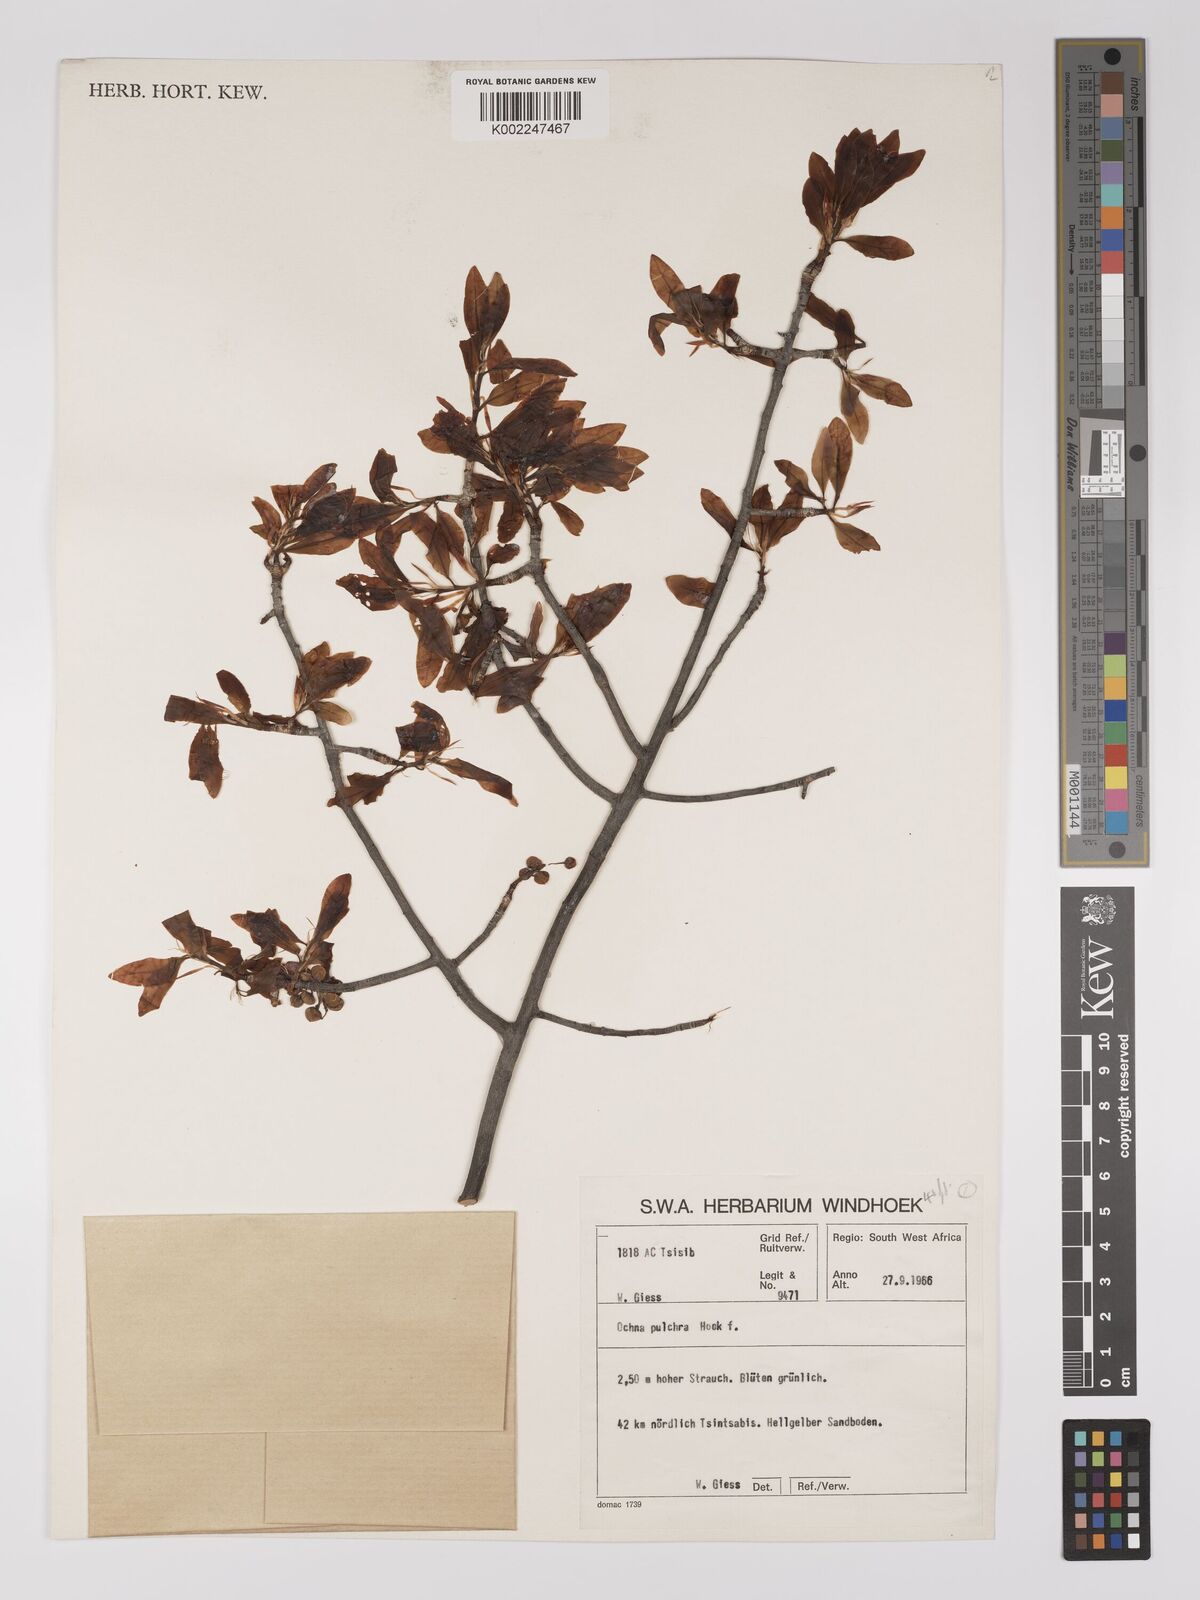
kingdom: Plantae
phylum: Tracheophyta
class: Magnoliopsida
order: Malpighiales
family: Ochnaceae
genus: Ochna
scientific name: Ochna pulchra
